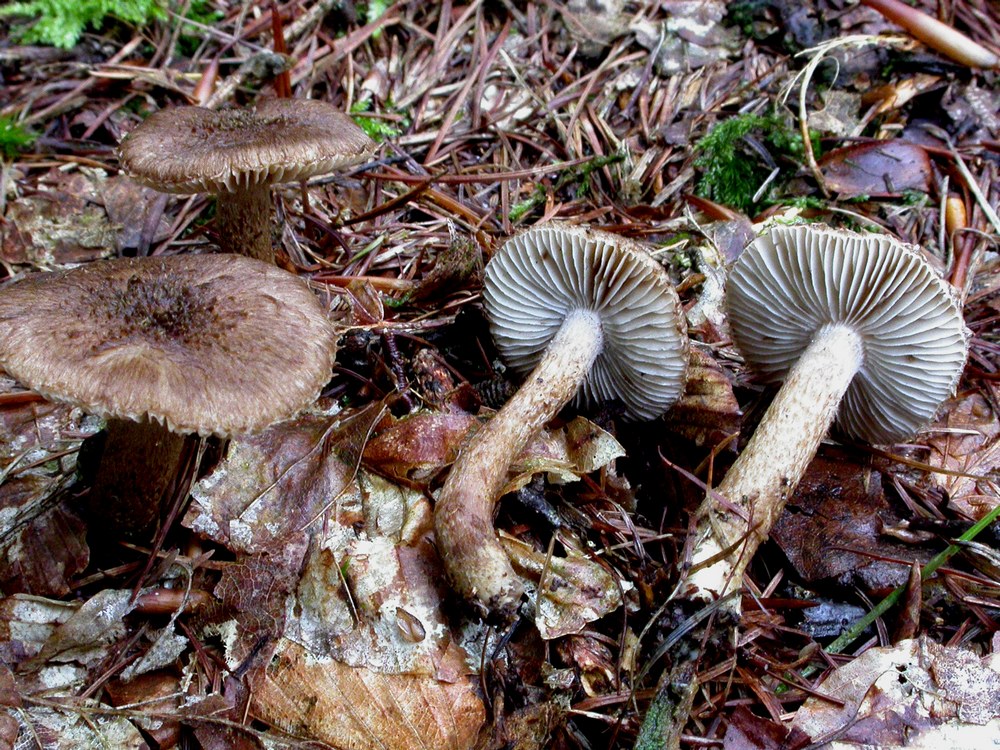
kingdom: Fungi
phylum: Basidiomycota
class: Agaricomycetes
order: Agaricales
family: Inocybaceae
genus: Inocybe
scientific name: Inocybe lanuginosa
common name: uldskællet trævlhat
